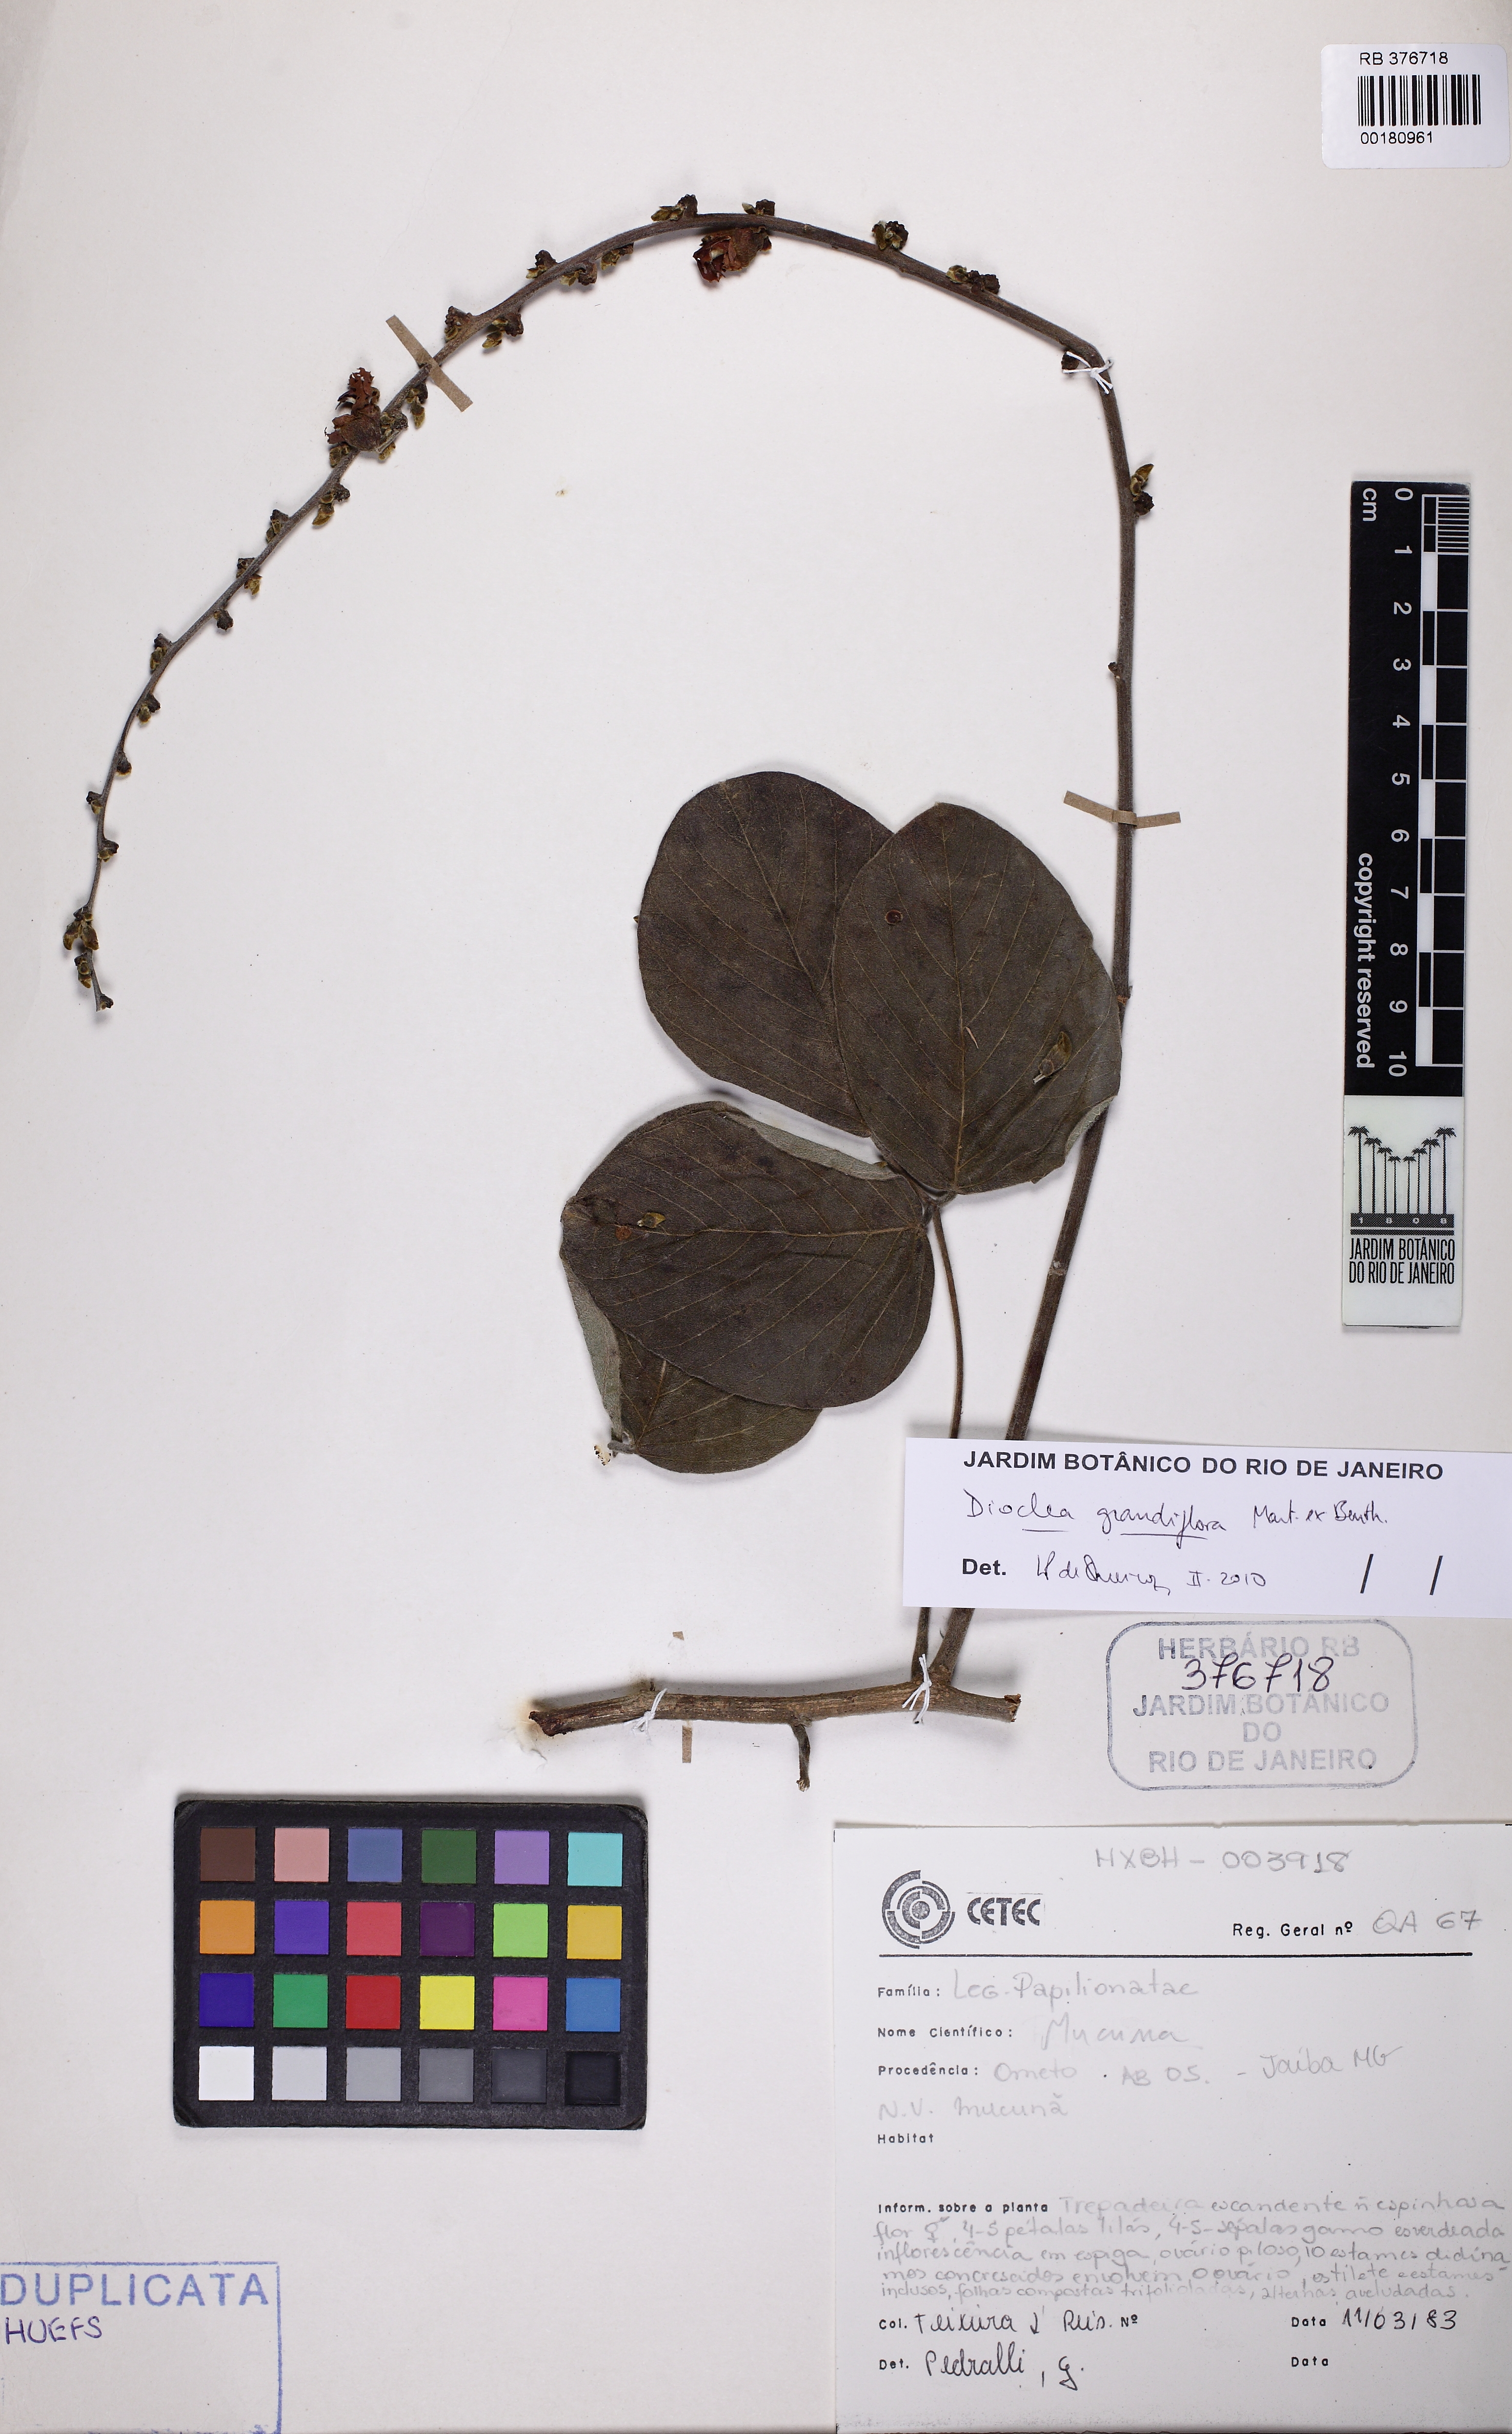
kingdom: Plantae
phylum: Tracheophyta
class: Magnoliopsida
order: Fabales
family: Fabaceae
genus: Macropsychanthus
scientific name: Macropsychanthus grandiflorus
